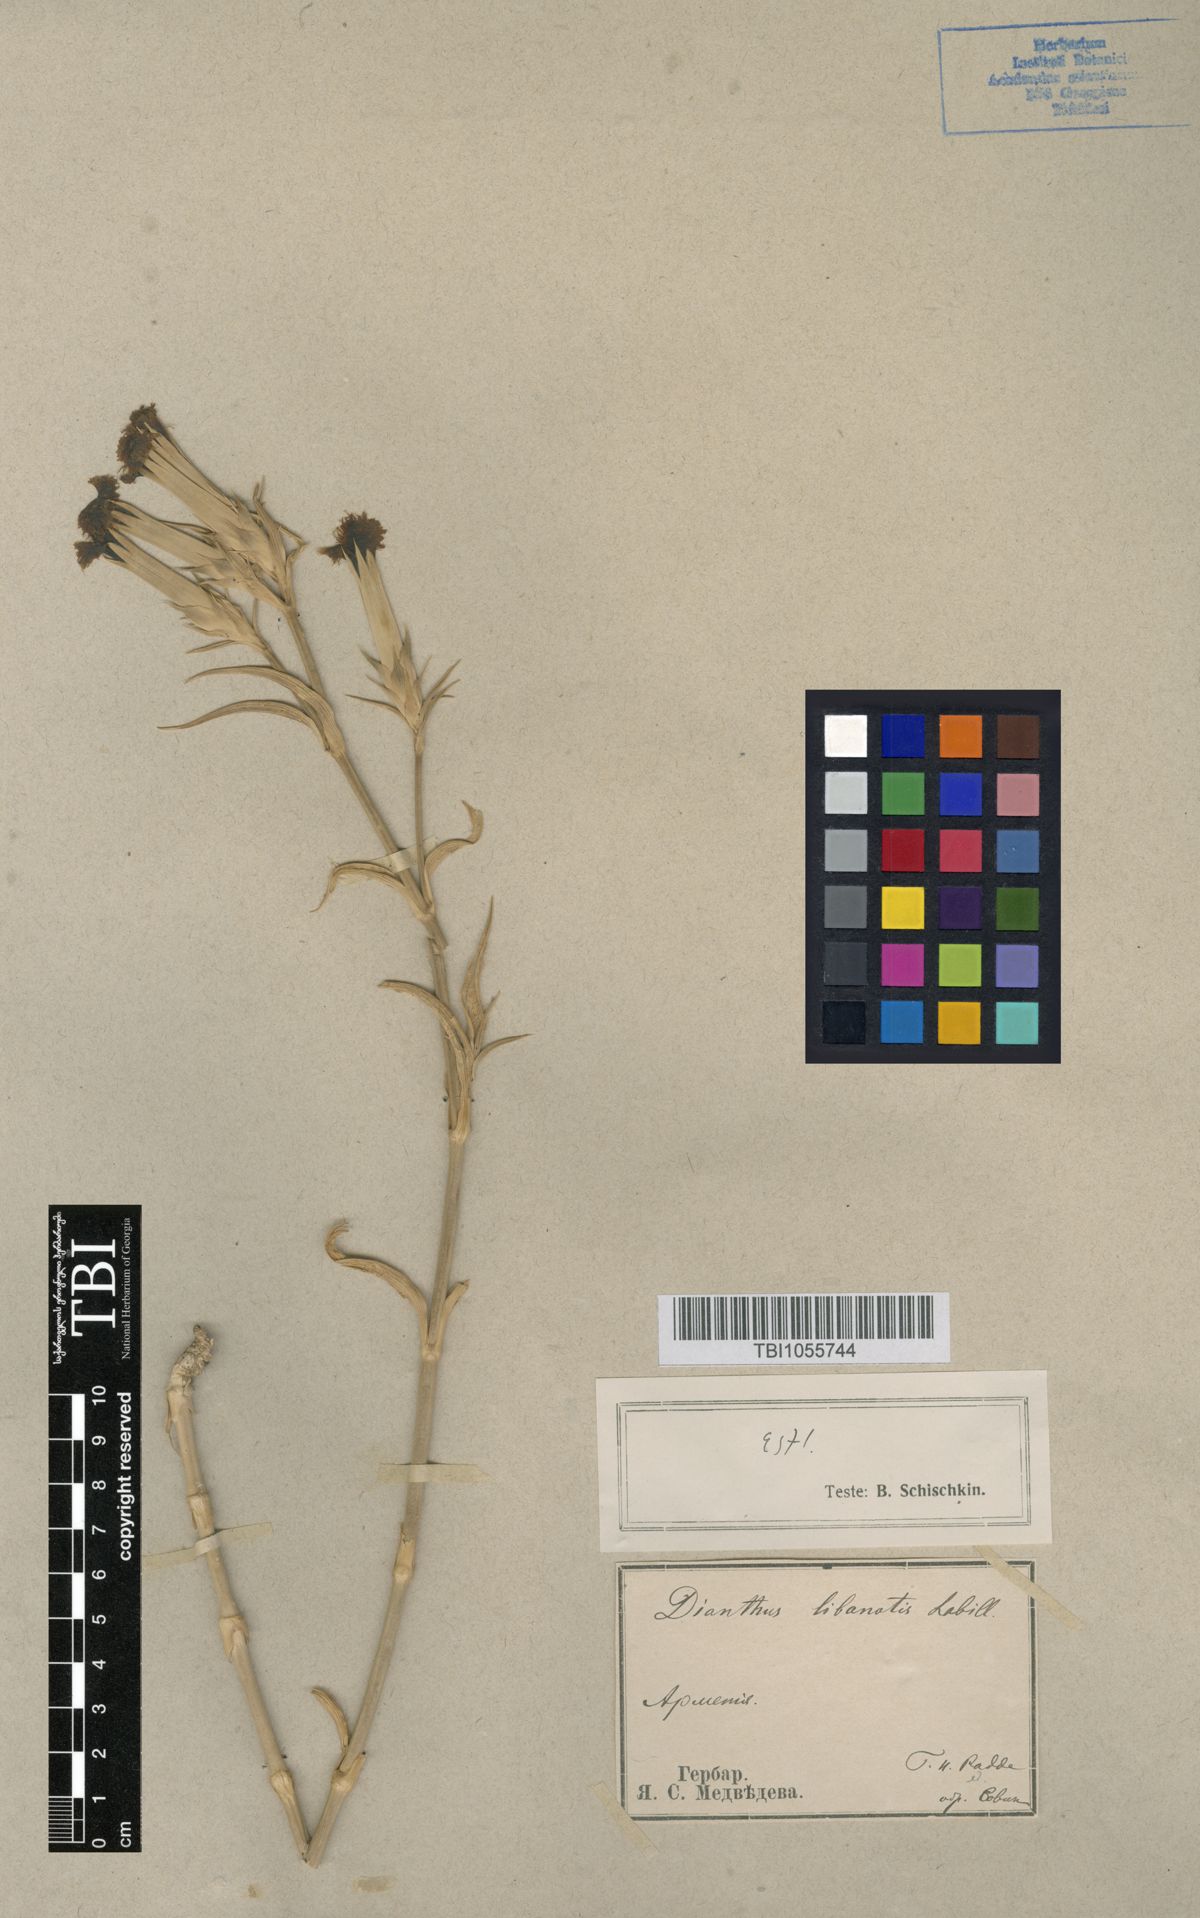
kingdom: Plantae
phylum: Tracheophyta
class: Magnoliopsida
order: Caryophyllales
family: Caryophyllaceae
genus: Dianthus
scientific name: Dianthus libanotis
